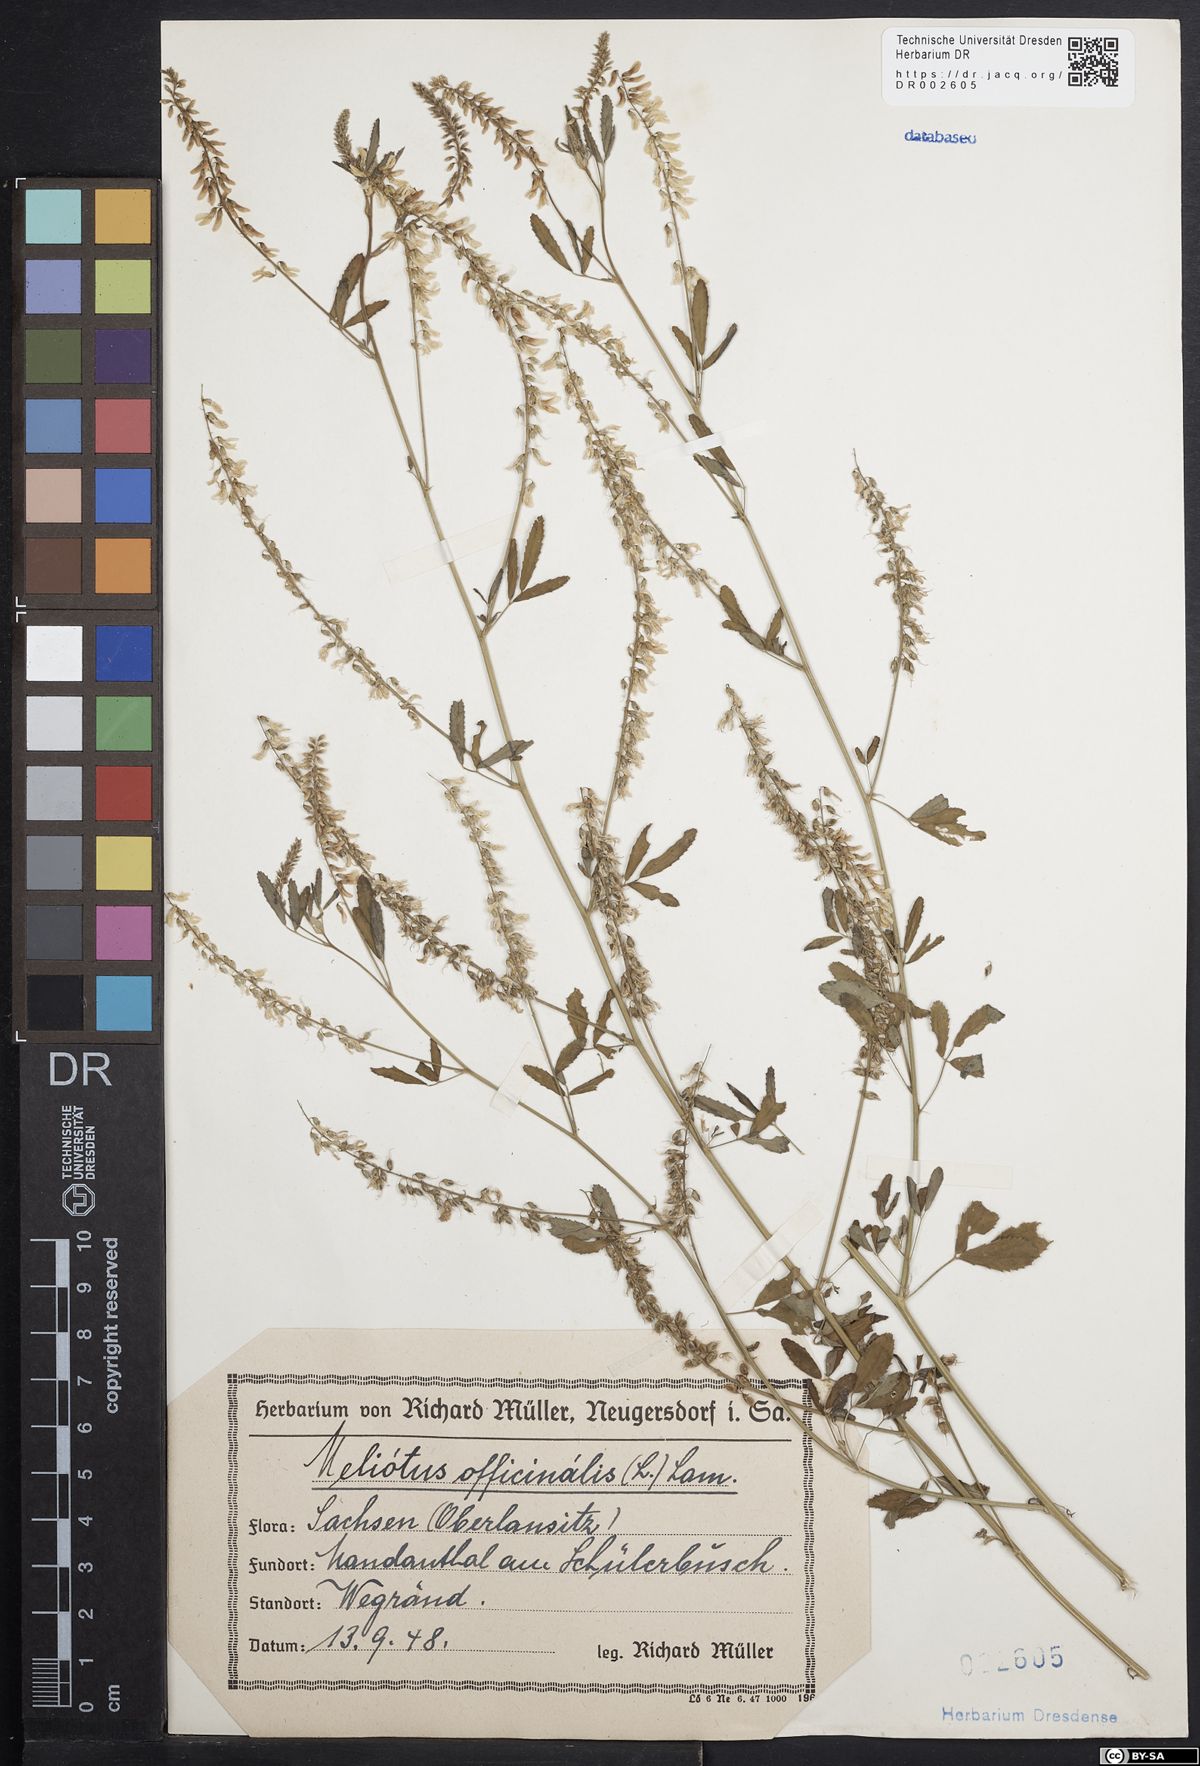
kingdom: Plantae
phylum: Tracheophyta
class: Magnoliopsida
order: Fabales
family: Fabaceae
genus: Melilotus
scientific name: Melilotus officinalis
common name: Sweetclover
